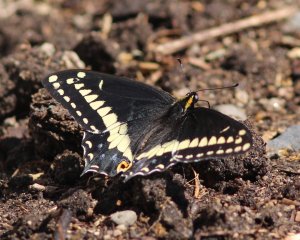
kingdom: Animalia
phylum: Arthropoda
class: Insecta
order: Lepidoptera
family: Papilionidae
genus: Papilio
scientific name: Papilio indra
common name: Indra Swallowtail
